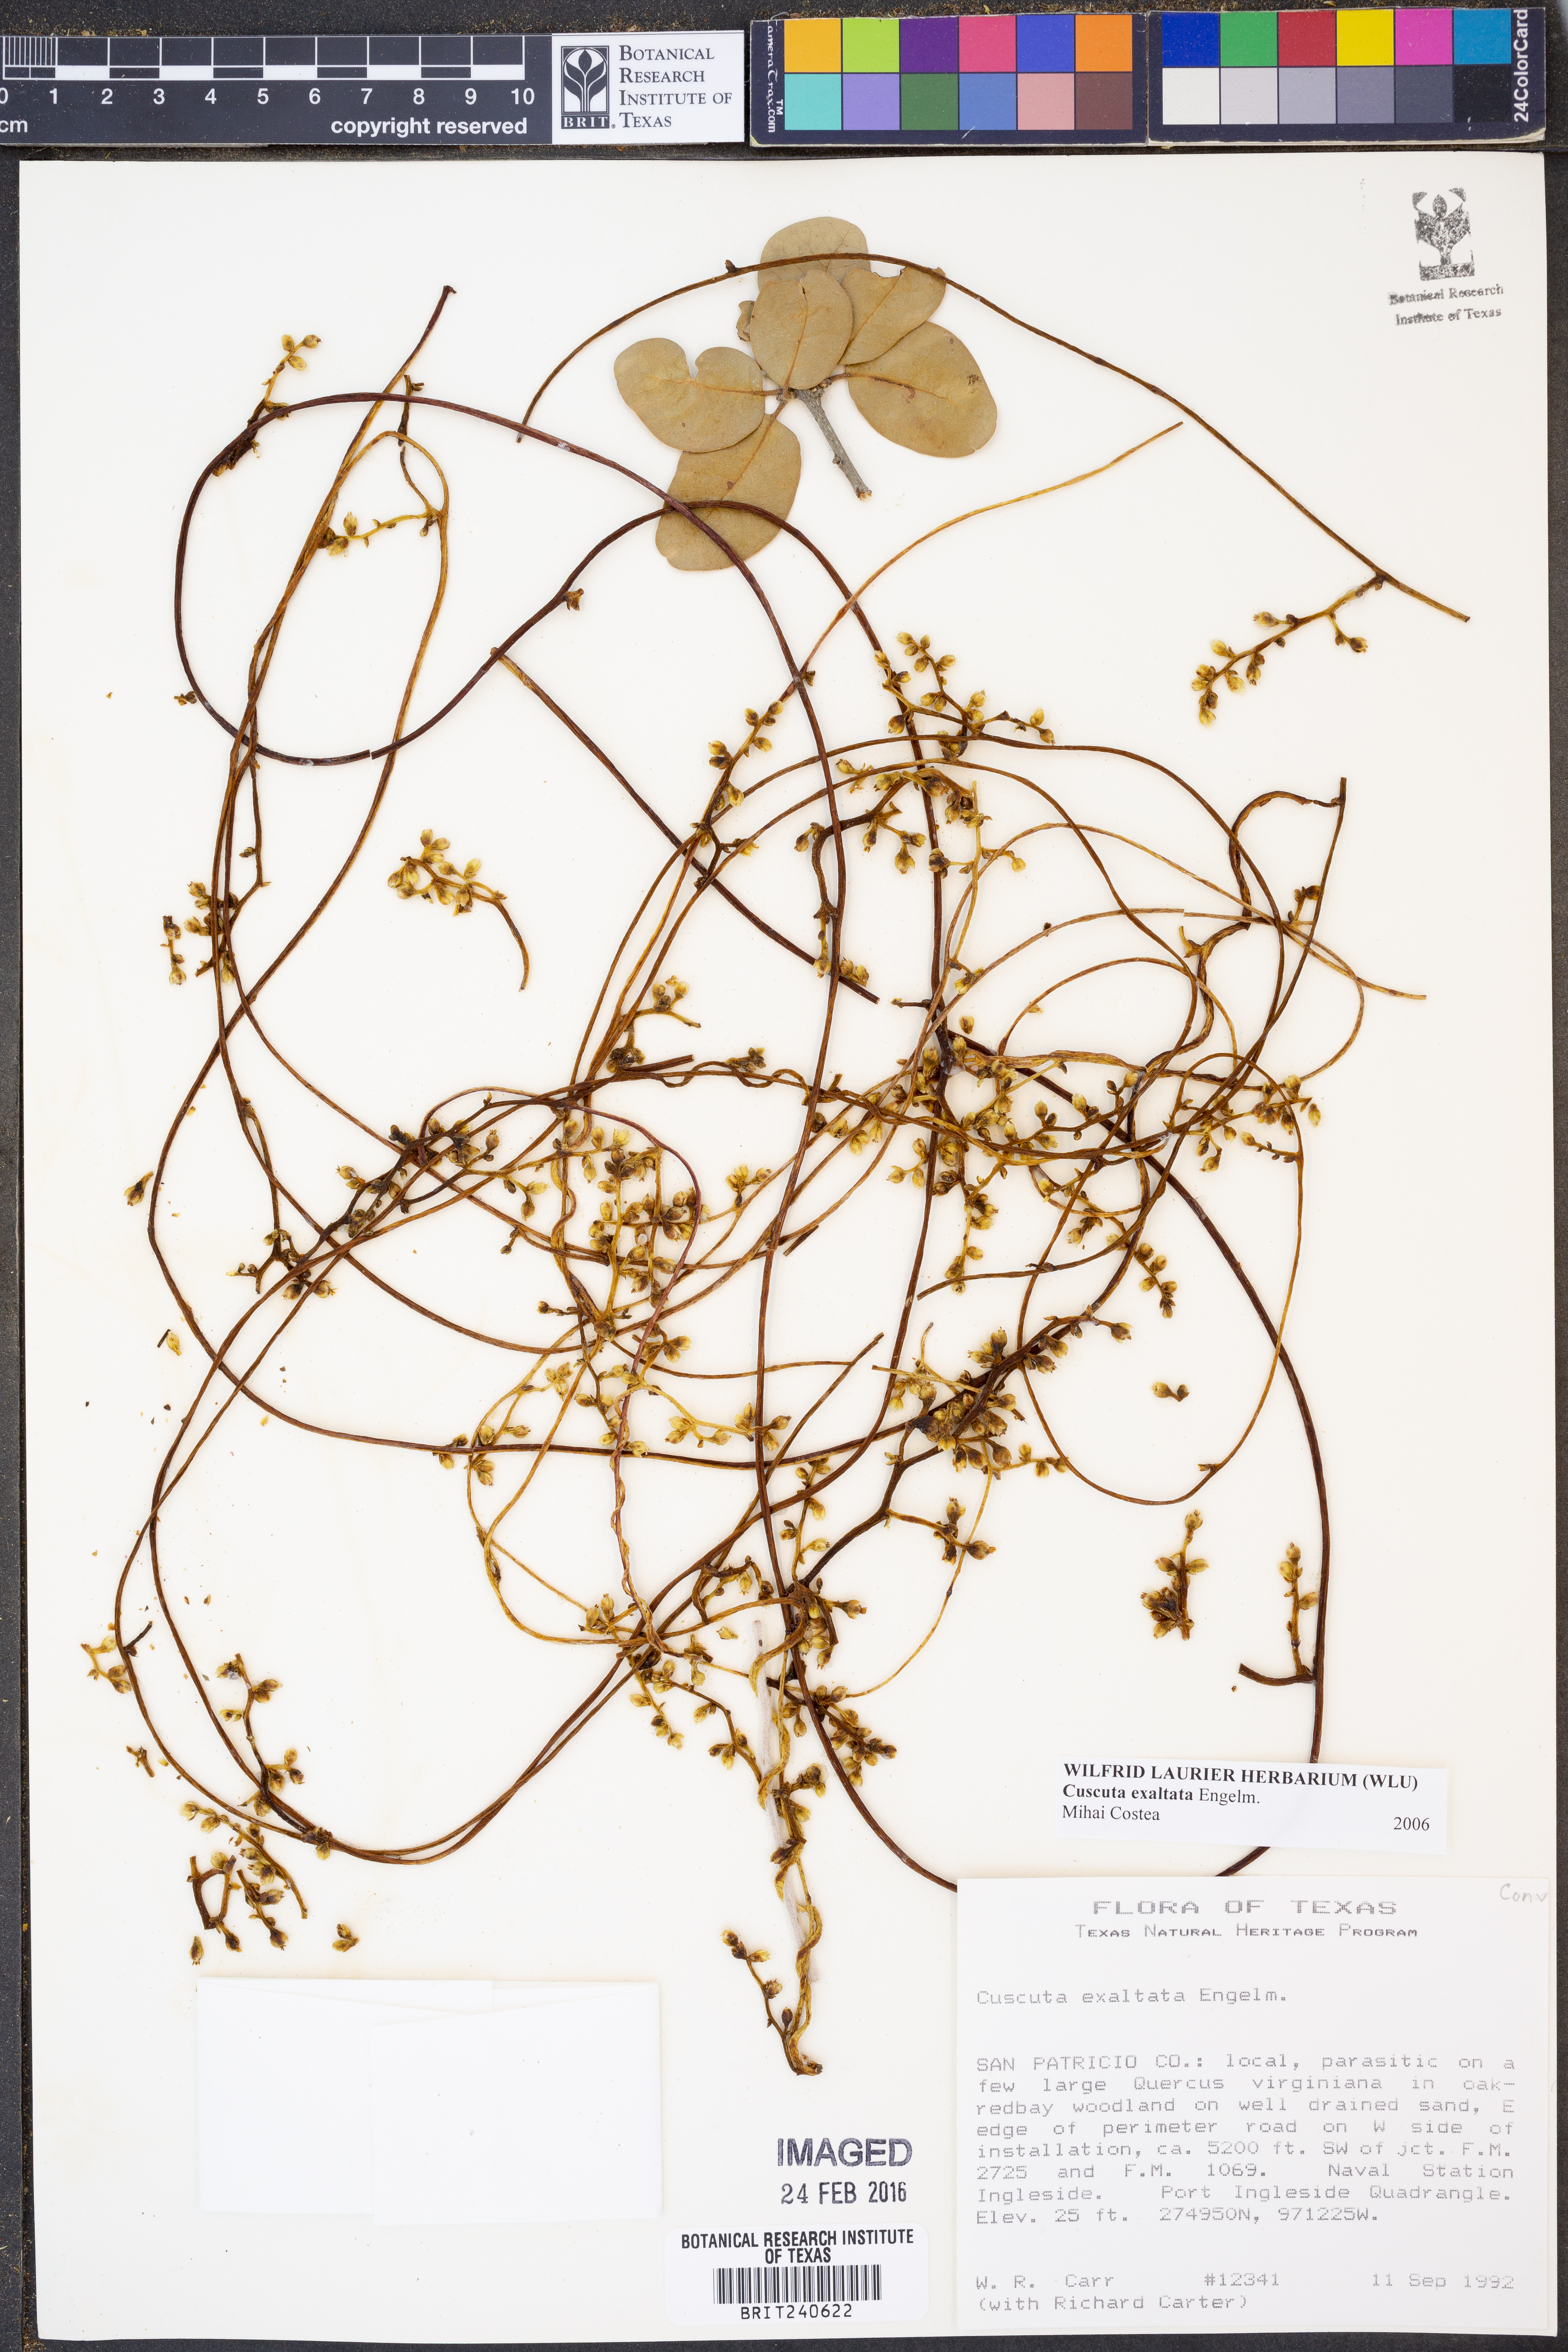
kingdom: Plantae
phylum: Tracheophyta
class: Magnoliopsida
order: Solanales
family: Convolvulaceae
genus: Cuscuta
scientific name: Cuscuta exaltata
